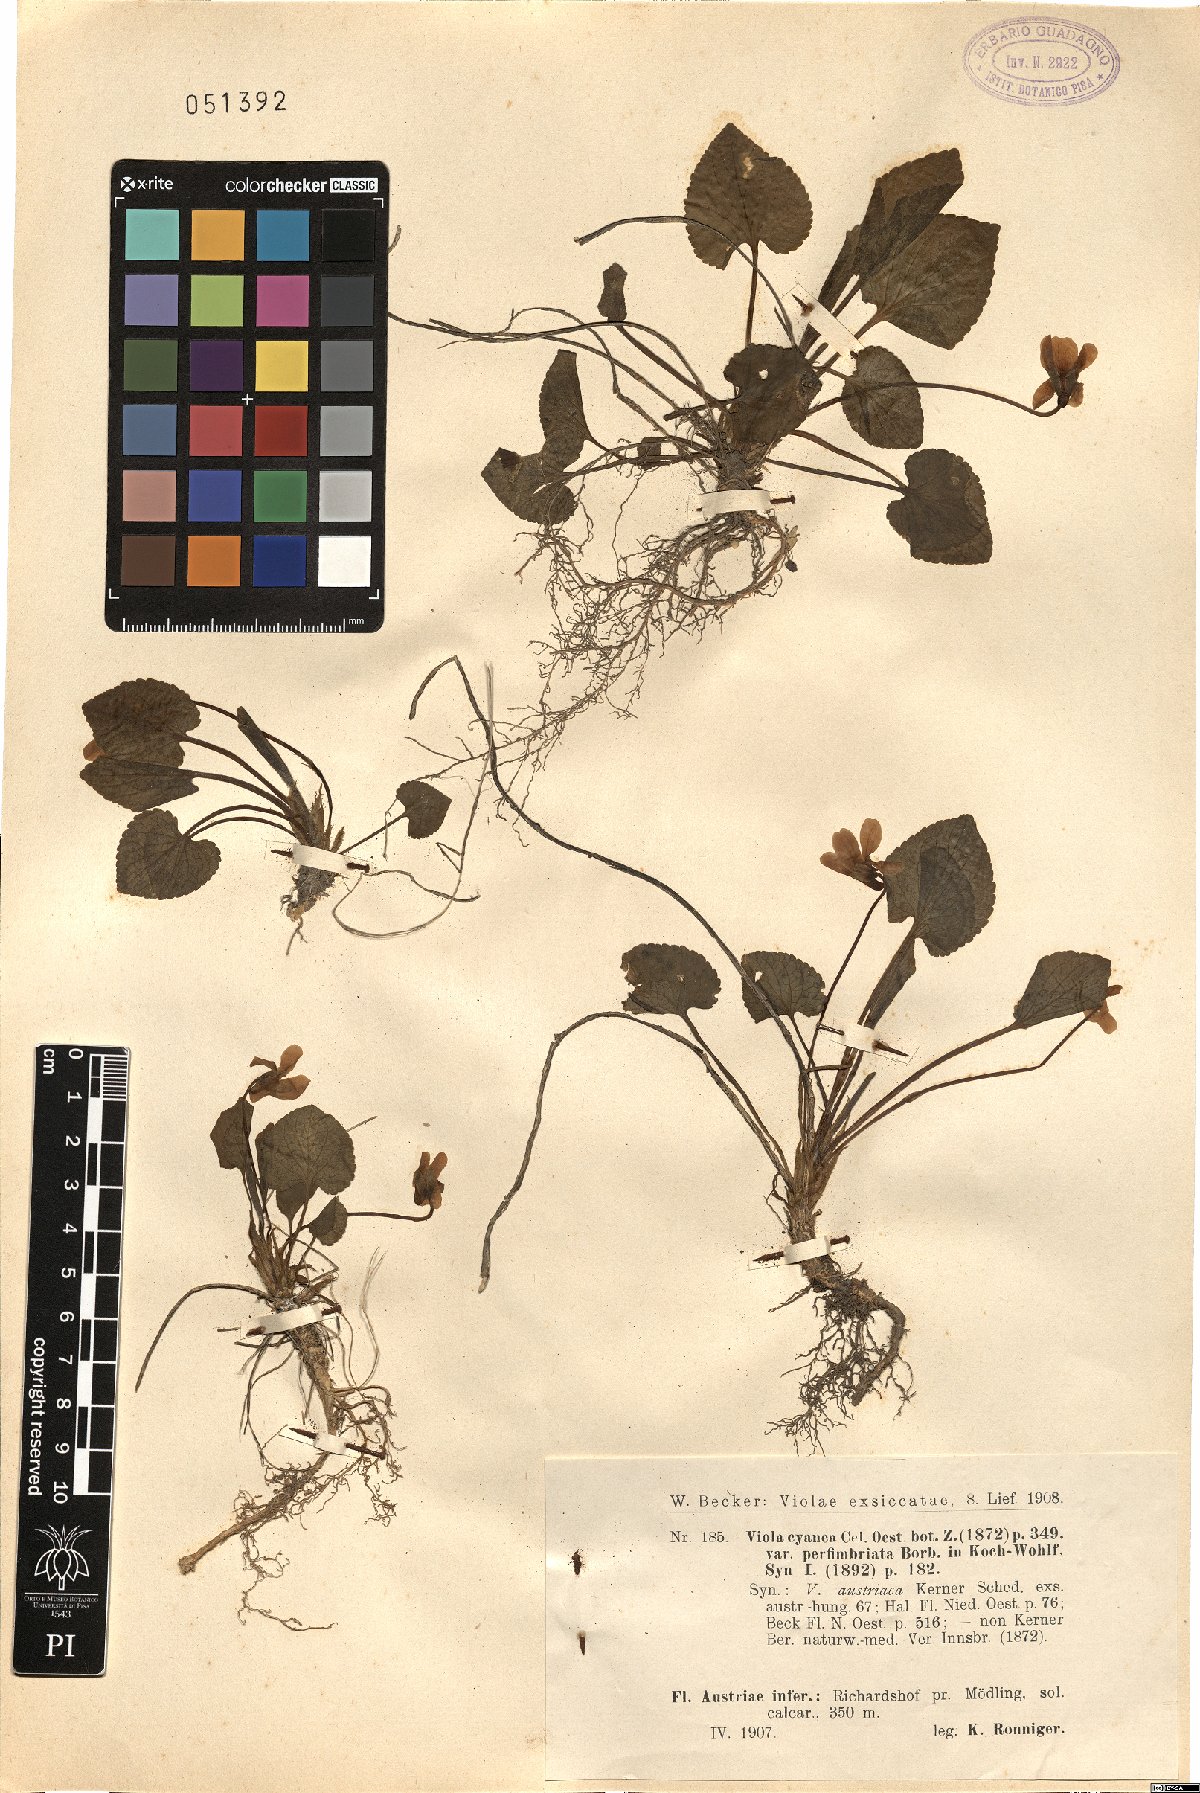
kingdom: Plantae
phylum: Tracheophyta
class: Magnoliopsida
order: Malpighiales
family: Violaceae
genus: Viola
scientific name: Viola suavis
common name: Russian violet
